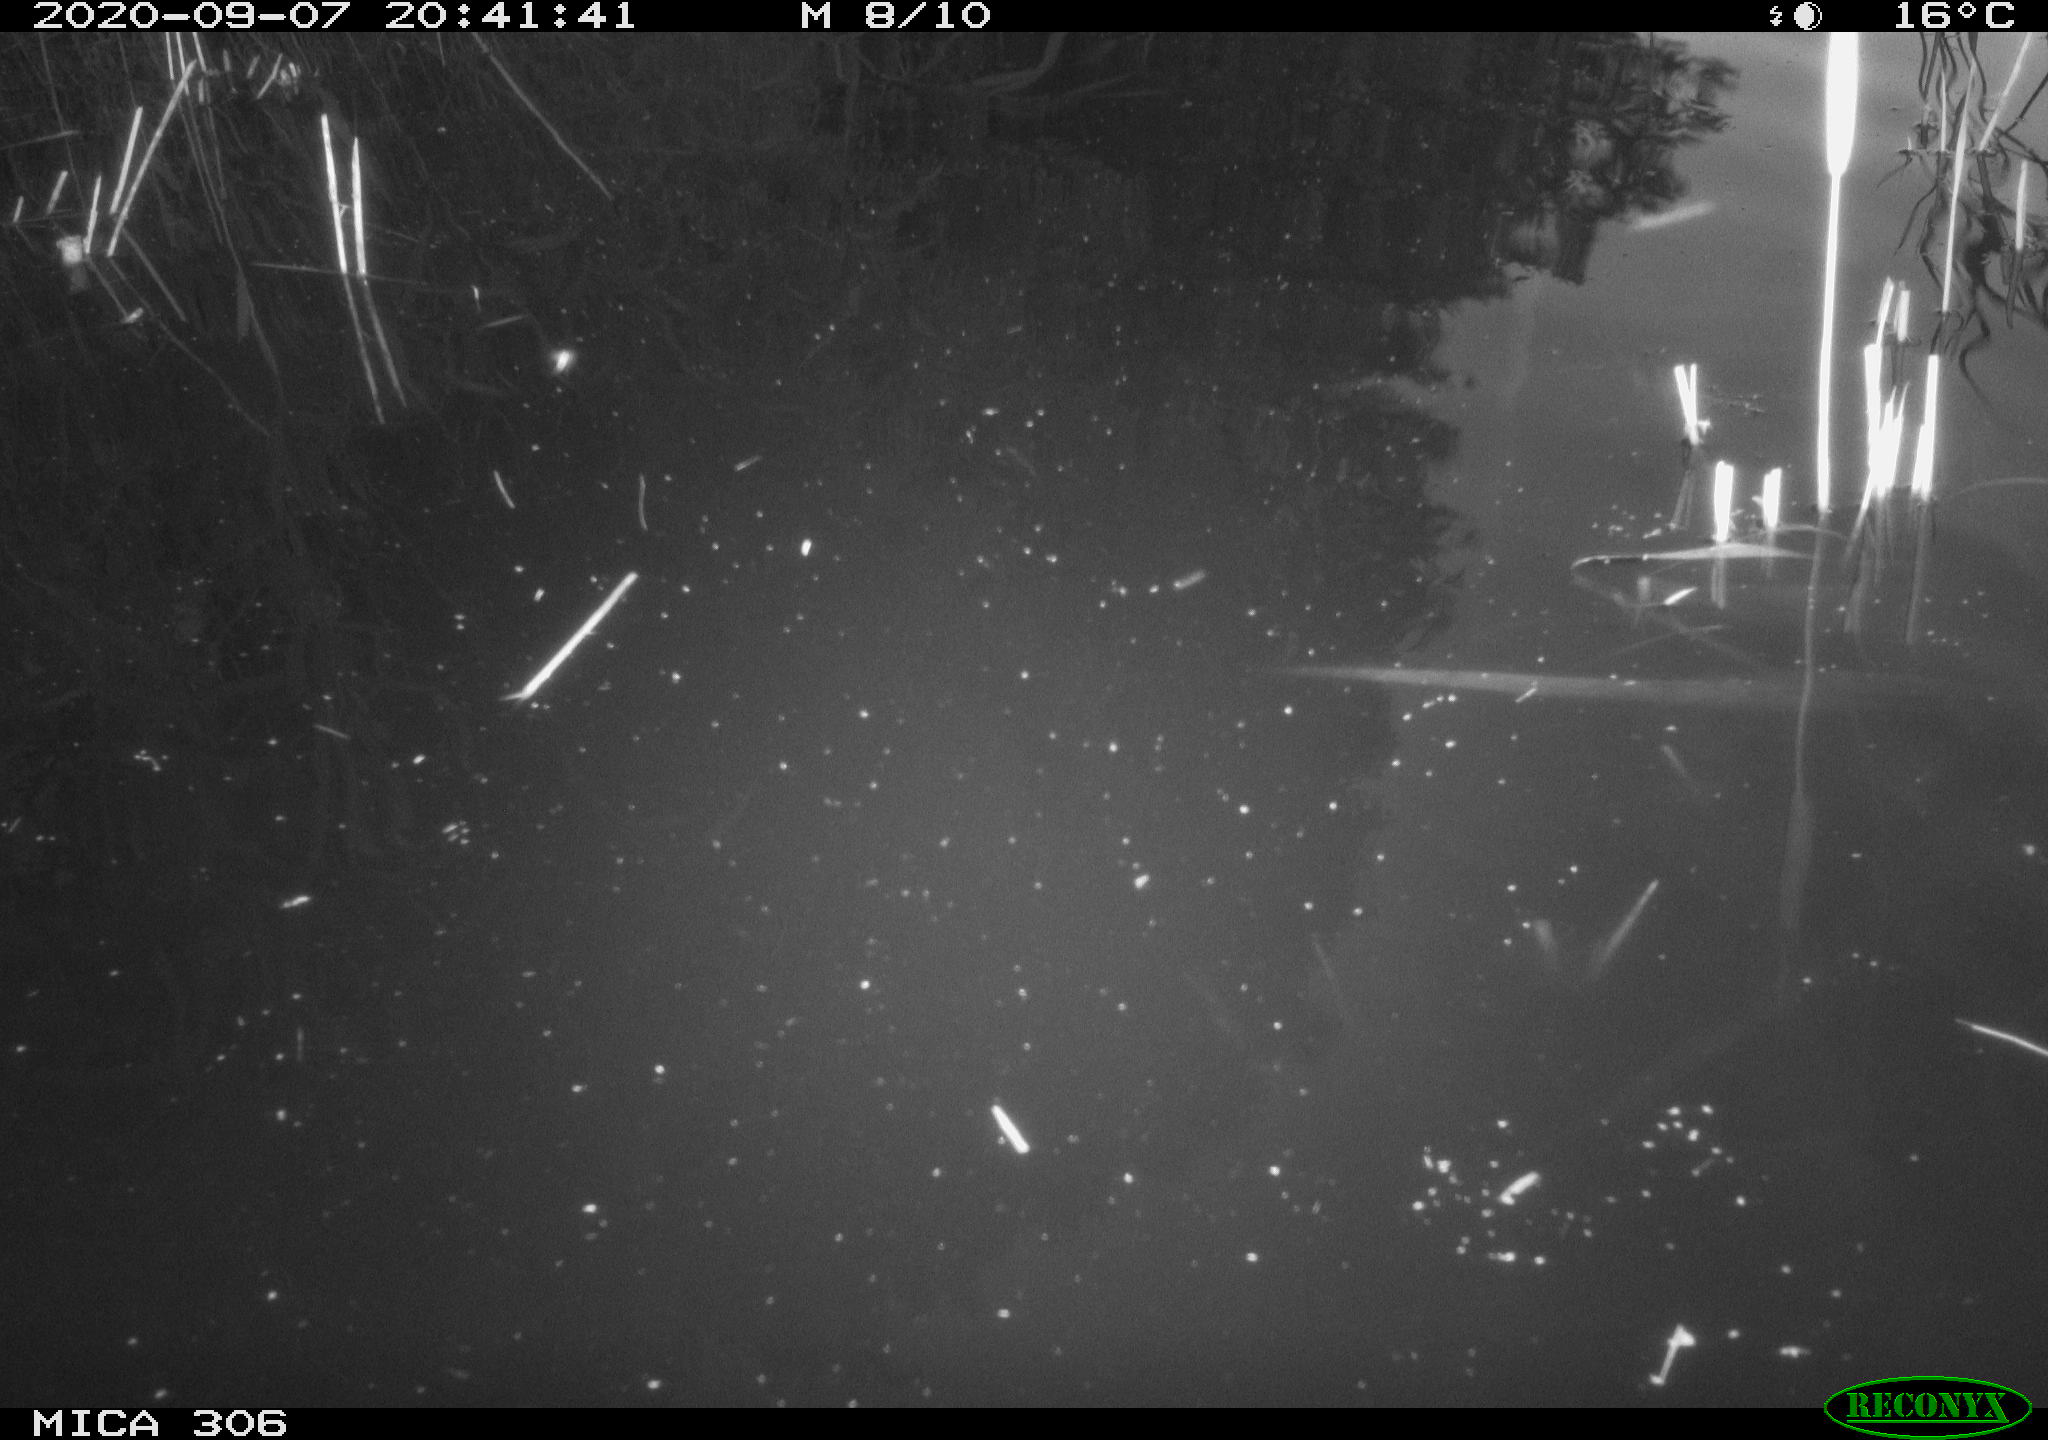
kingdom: Animalia
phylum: Chordata
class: Mammalia
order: Rodentia
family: Cricetidae
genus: Ondatra
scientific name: Ondatra zibethicus
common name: Muskrat
